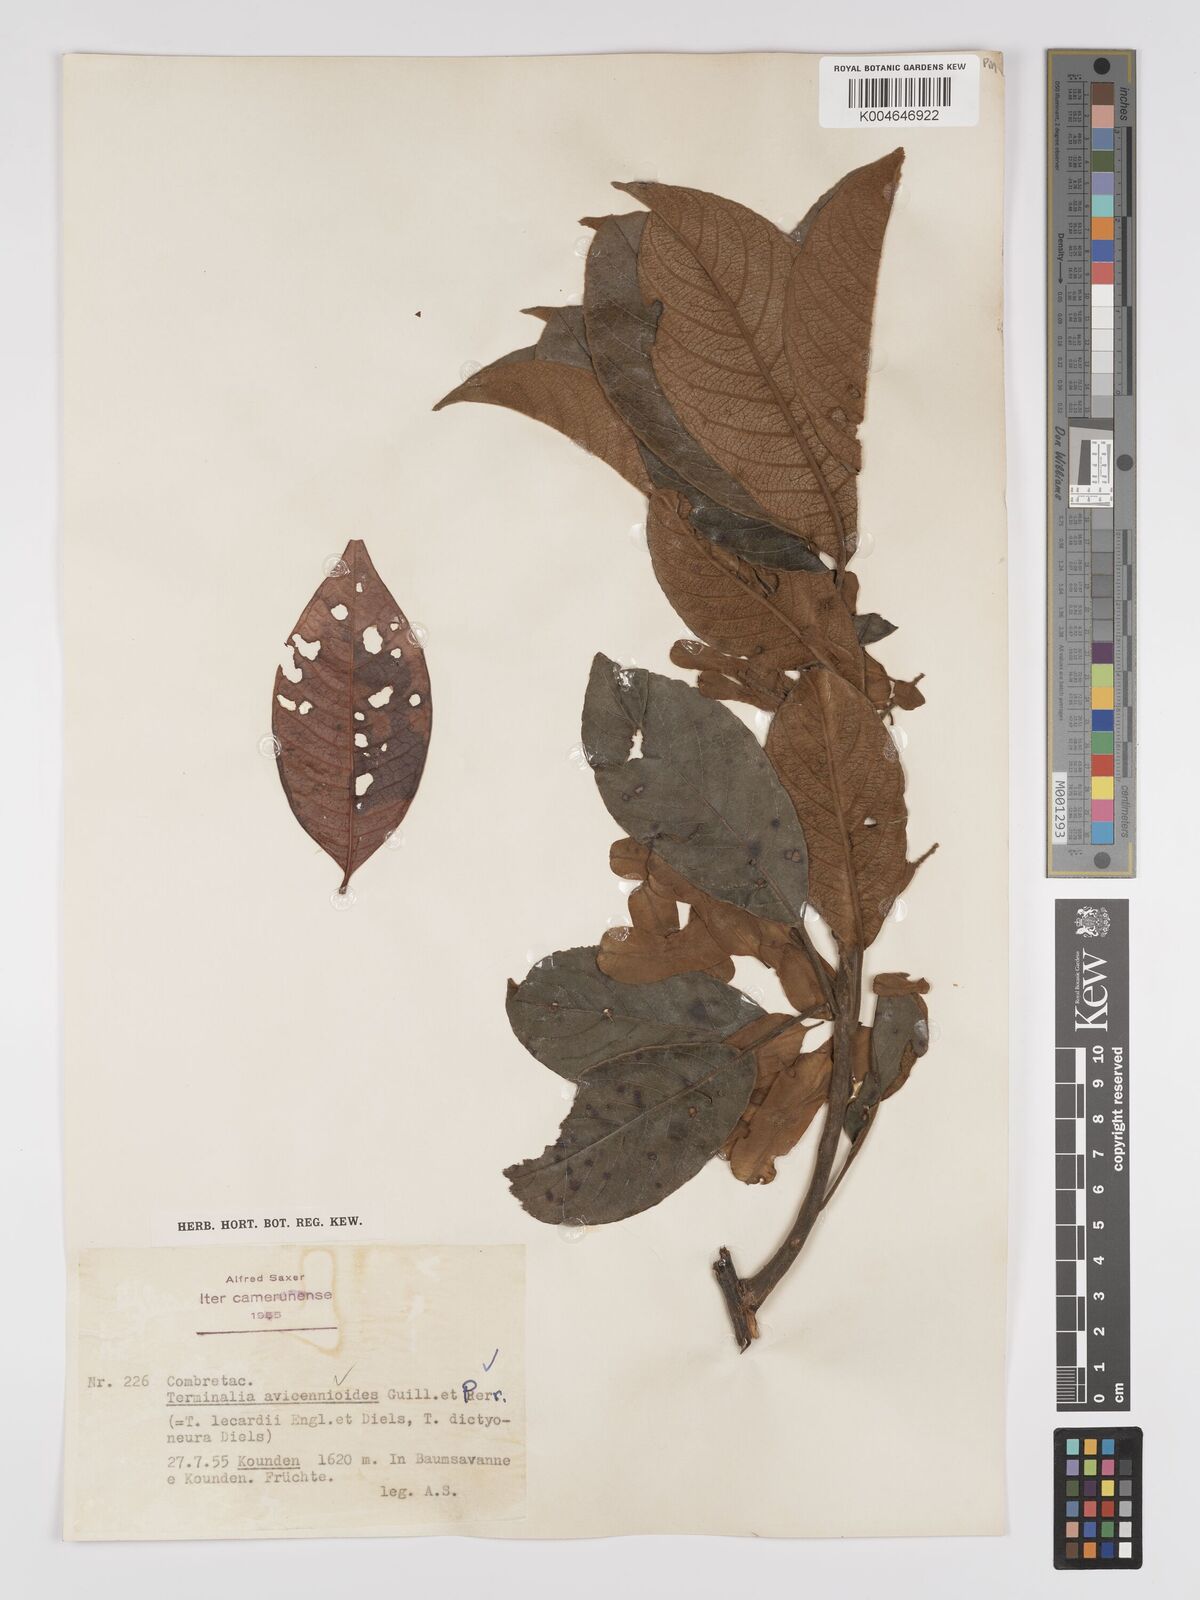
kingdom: Plantae
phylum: Tracheophyta
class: Magnoliopsida
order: Myrtales
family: Combretaceae
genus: Terminalia
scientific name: Terminalia avicennioides
